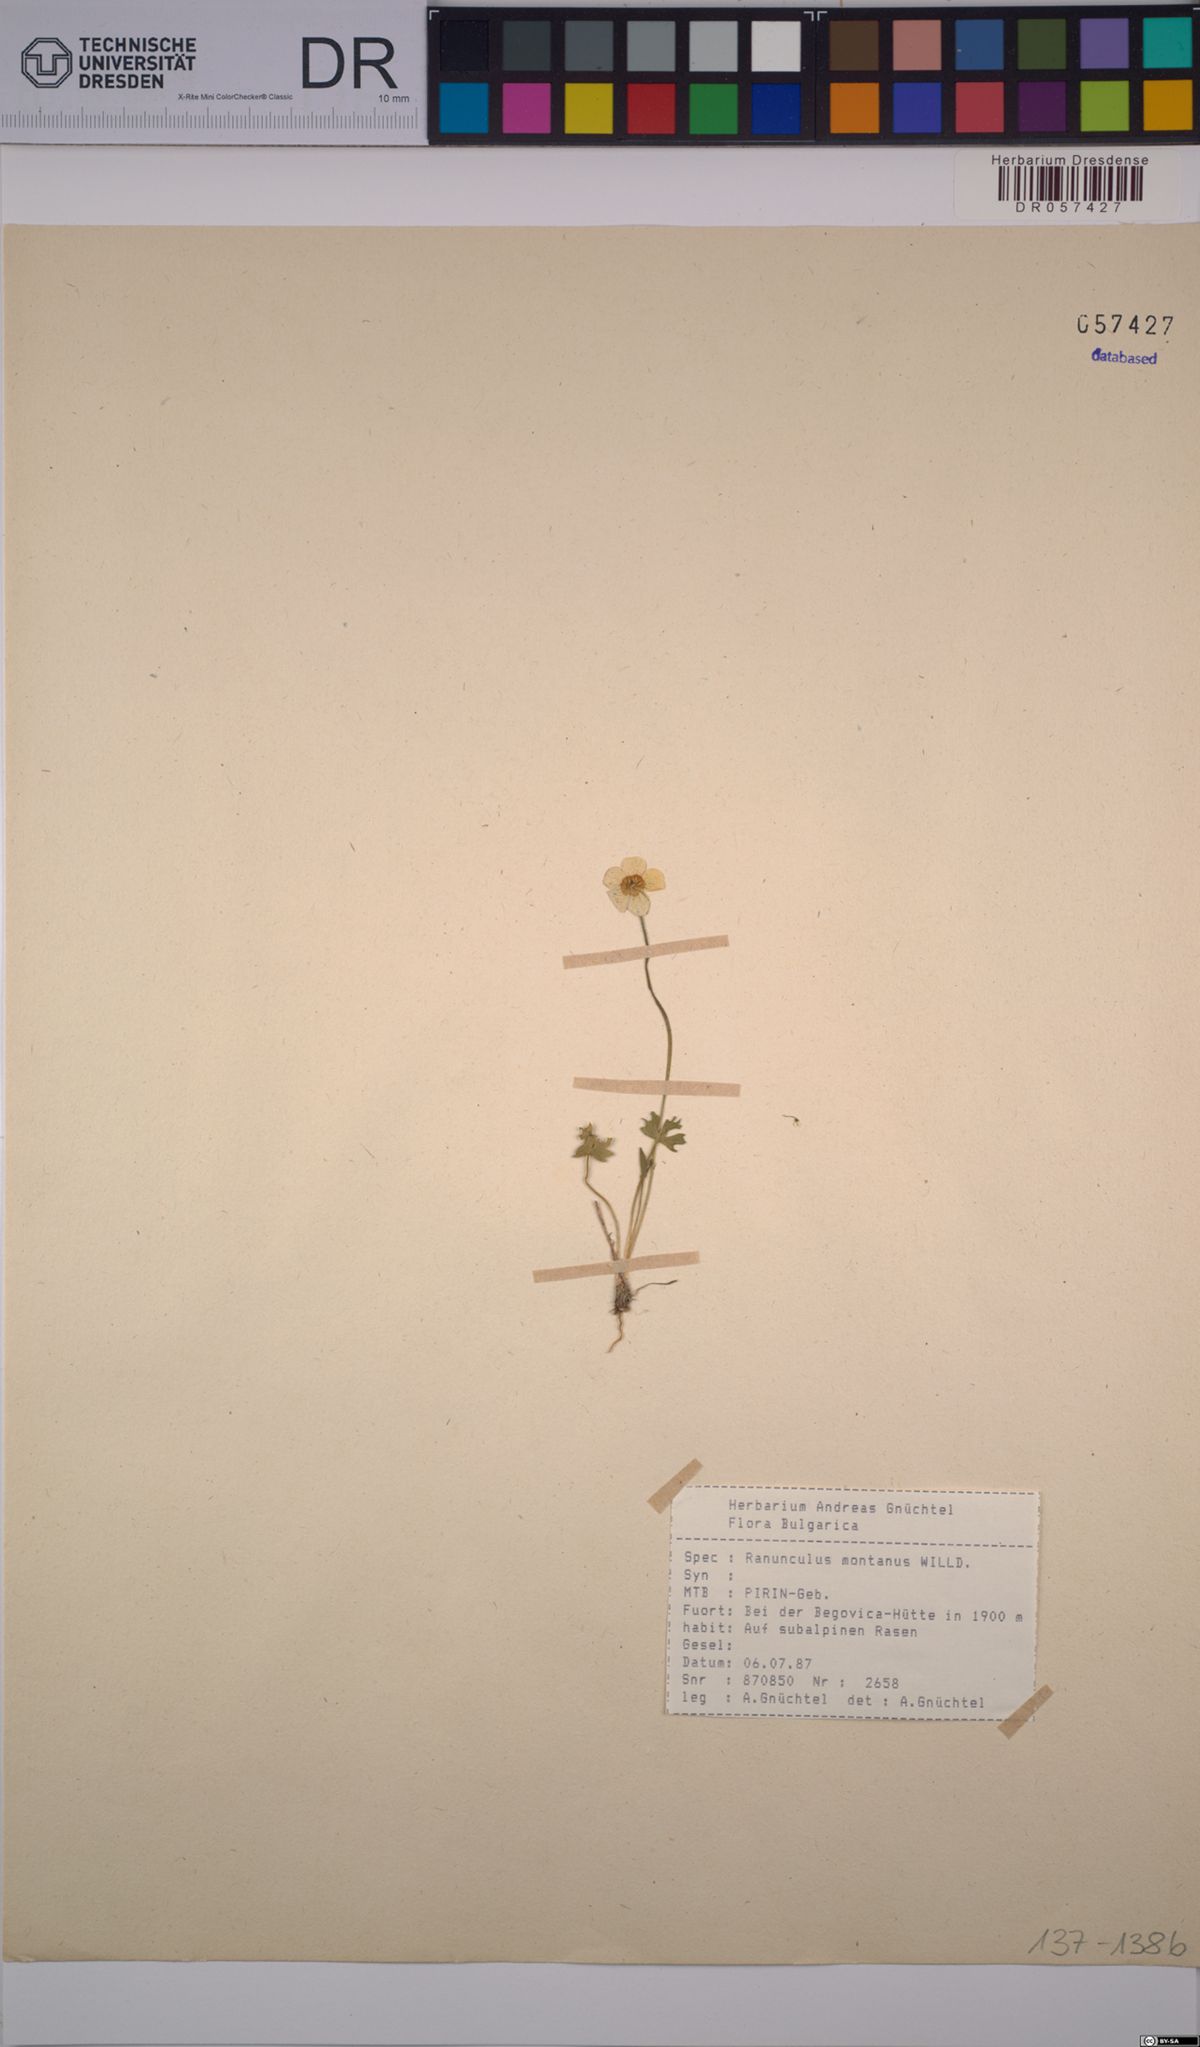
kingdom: Plantae
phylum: Tracheophyta
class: Magnoliopsida
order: Ranunculales
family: Ranunculaceae
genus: Ranunculus
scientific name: Ranunculus montanus
